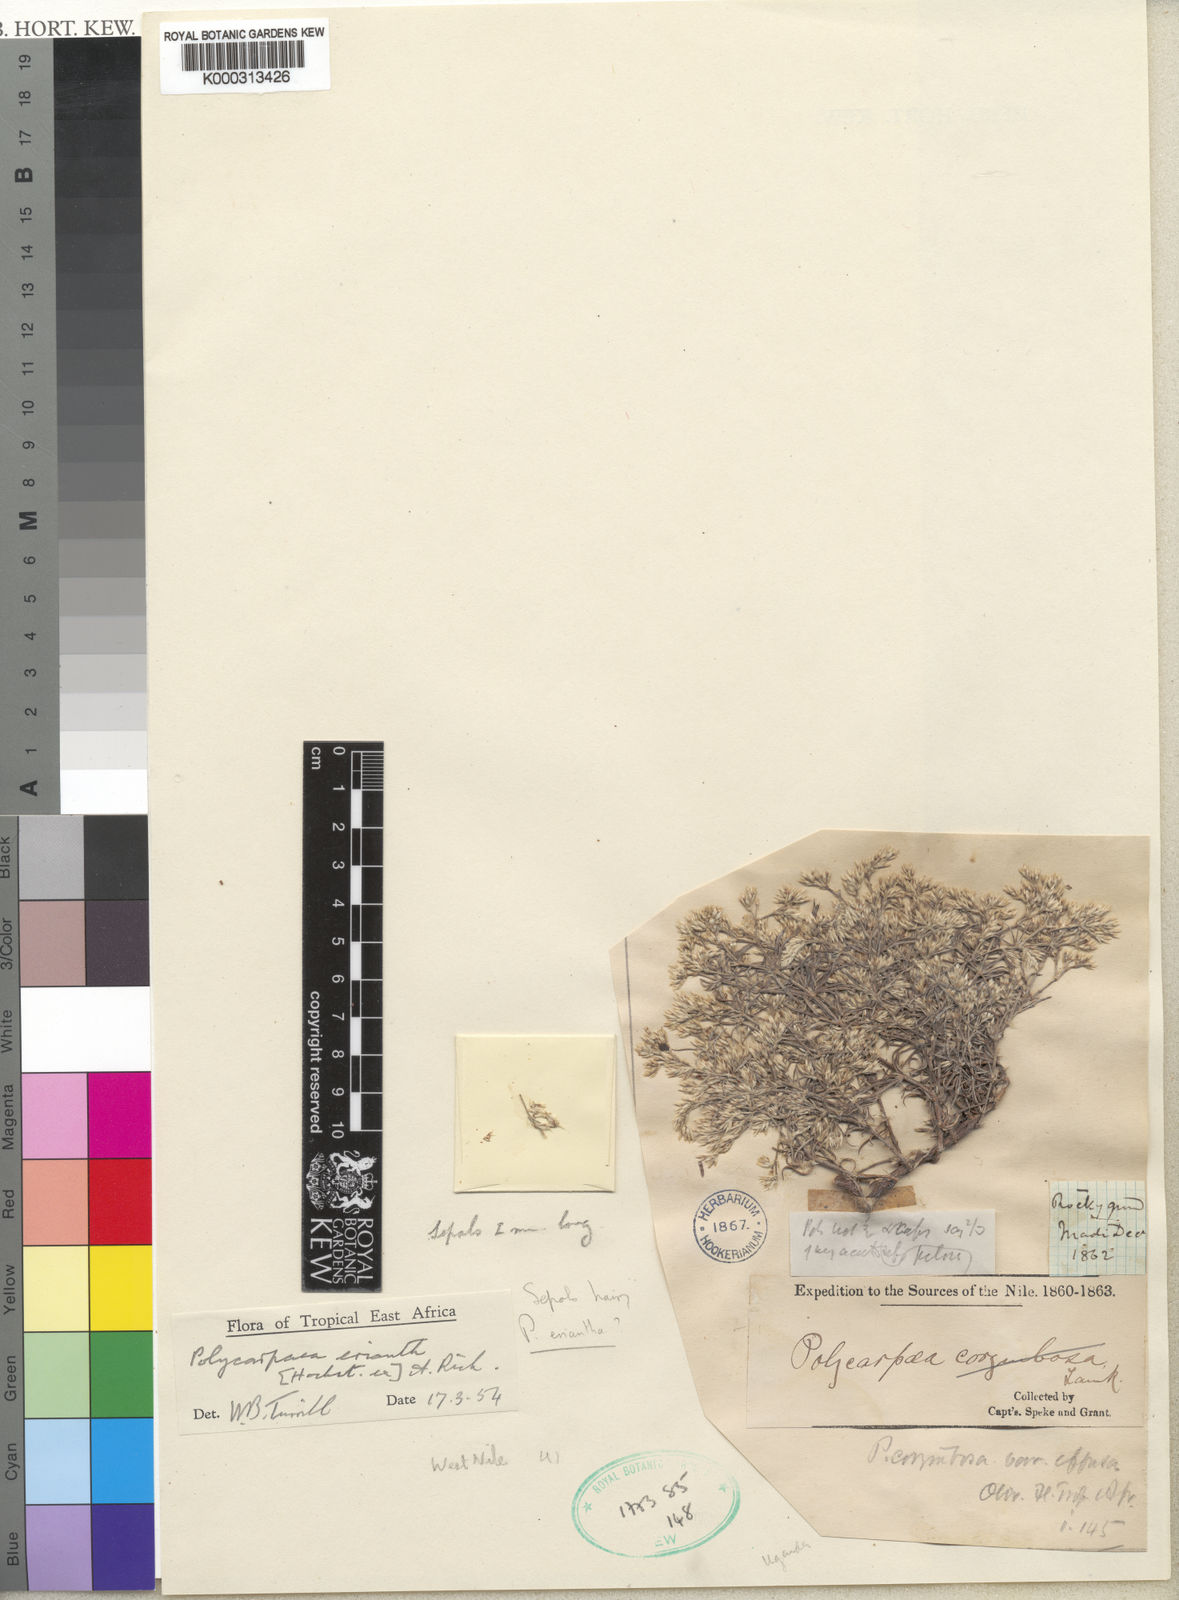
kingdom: Plantae
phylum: Tracheophyta
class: Magnoliopsida
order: Caryophyllales
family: Caryophyllaceae
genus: Polycarpaea
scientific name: Polycarpaea eriantha
